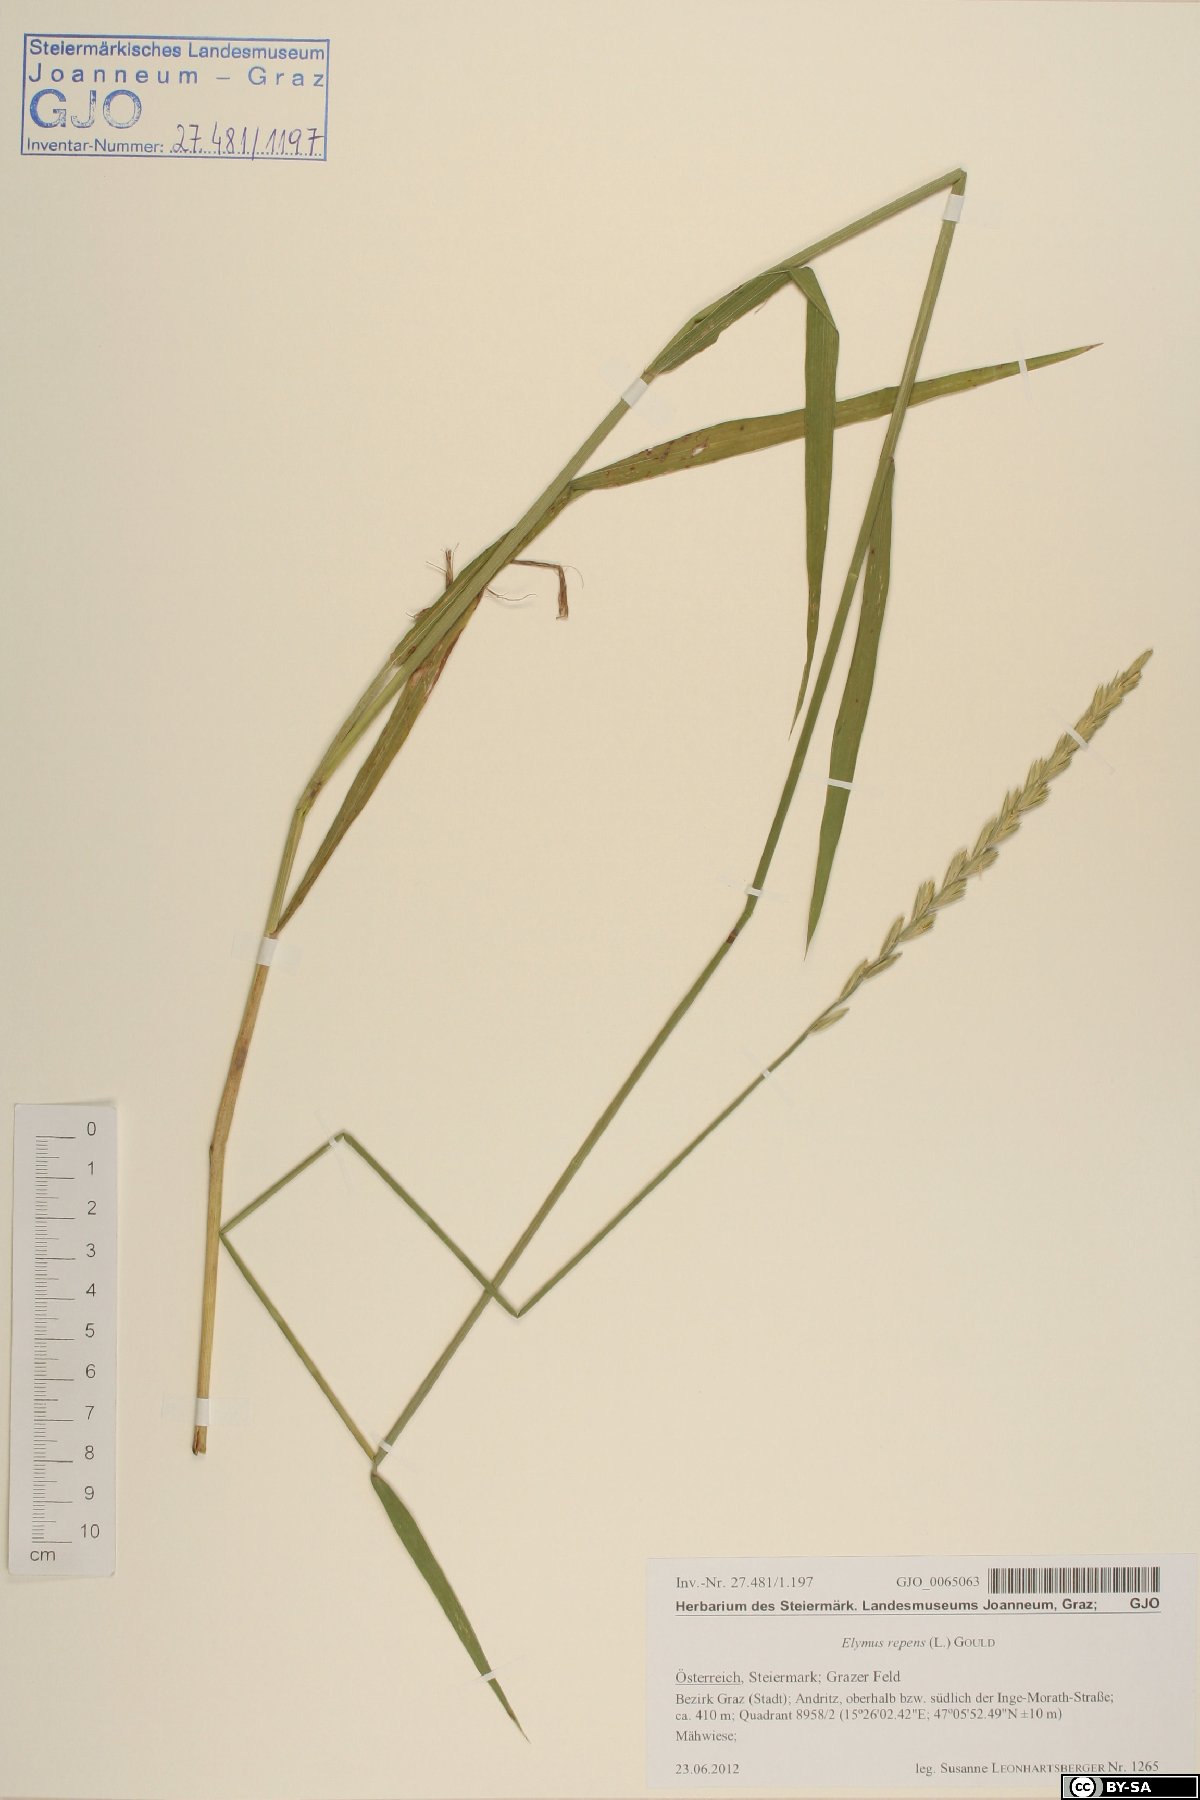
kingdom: Plantae
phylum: Tracheophyta
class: Liliopsida
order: Poales
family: Poaceae
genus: Elymus
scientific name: Elymus repens
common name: Quackgrass
